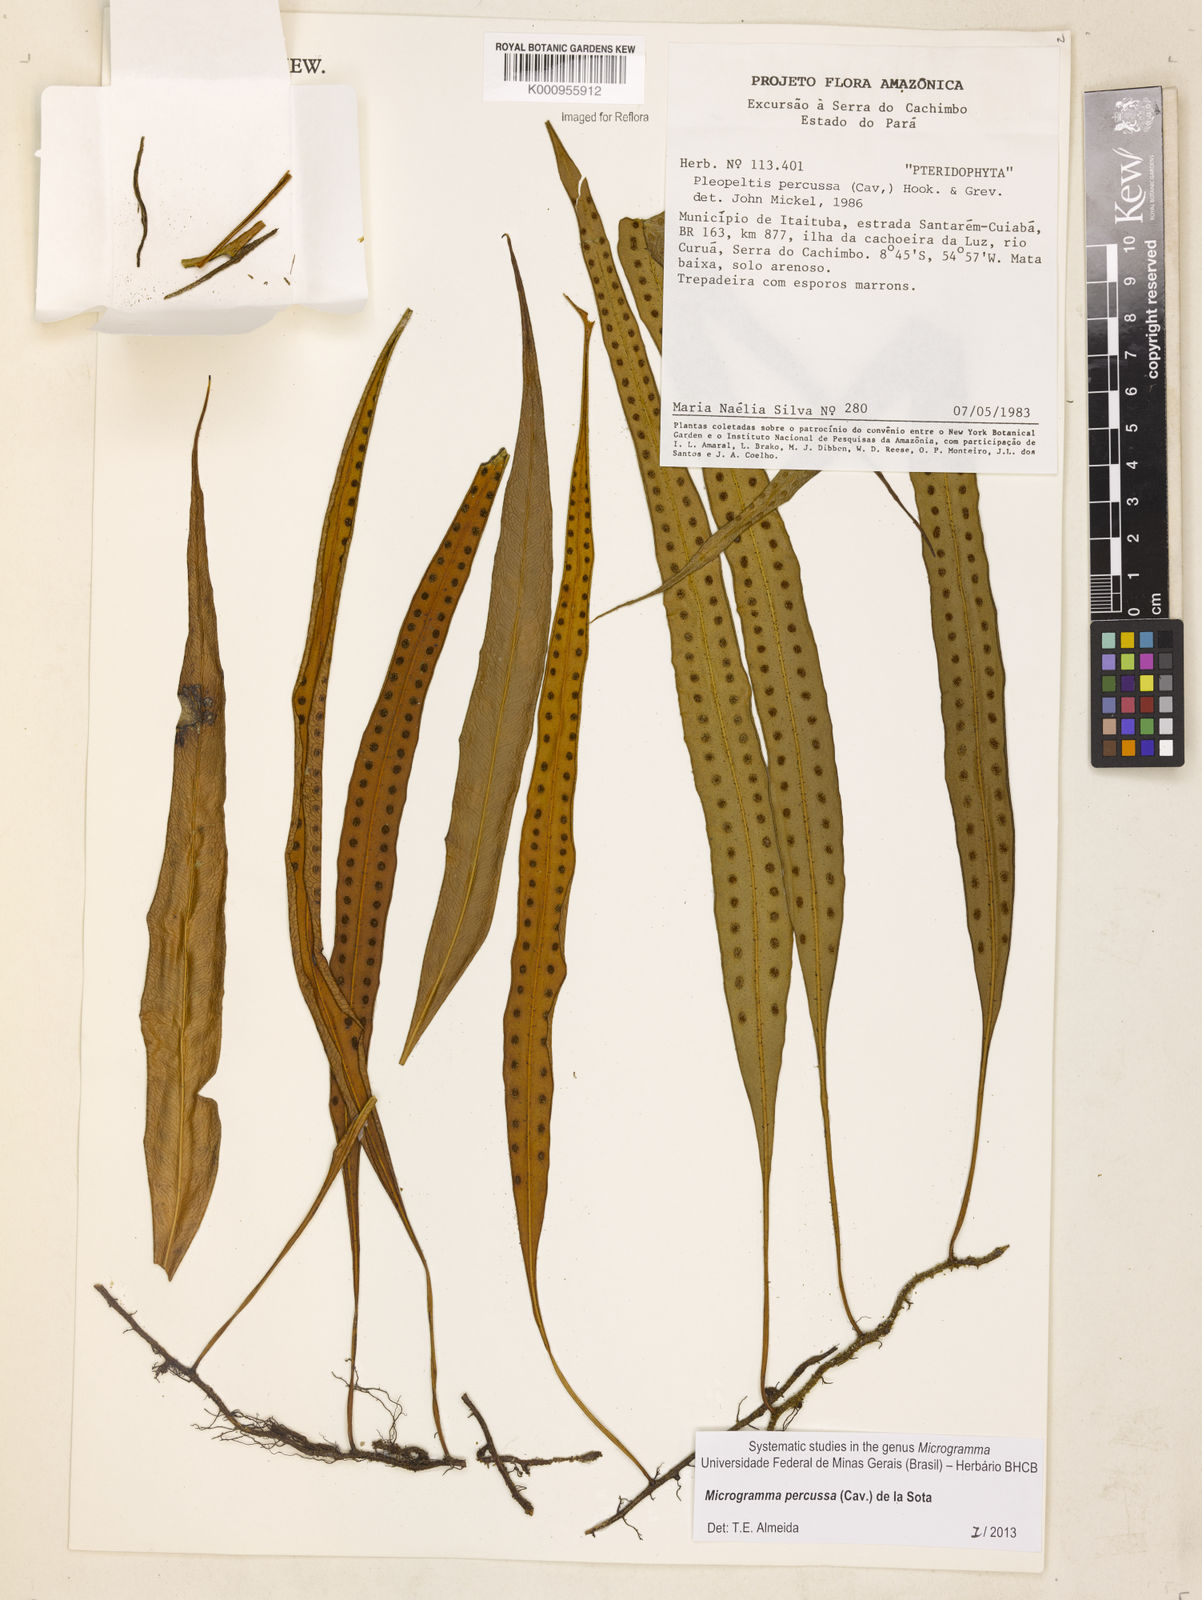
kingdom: Plantae
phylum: Tracheophyta
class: Polypodiopsida
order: Polypodiales
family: Polypodiaceae
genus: Microgramma
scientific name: Microgramma percussa
